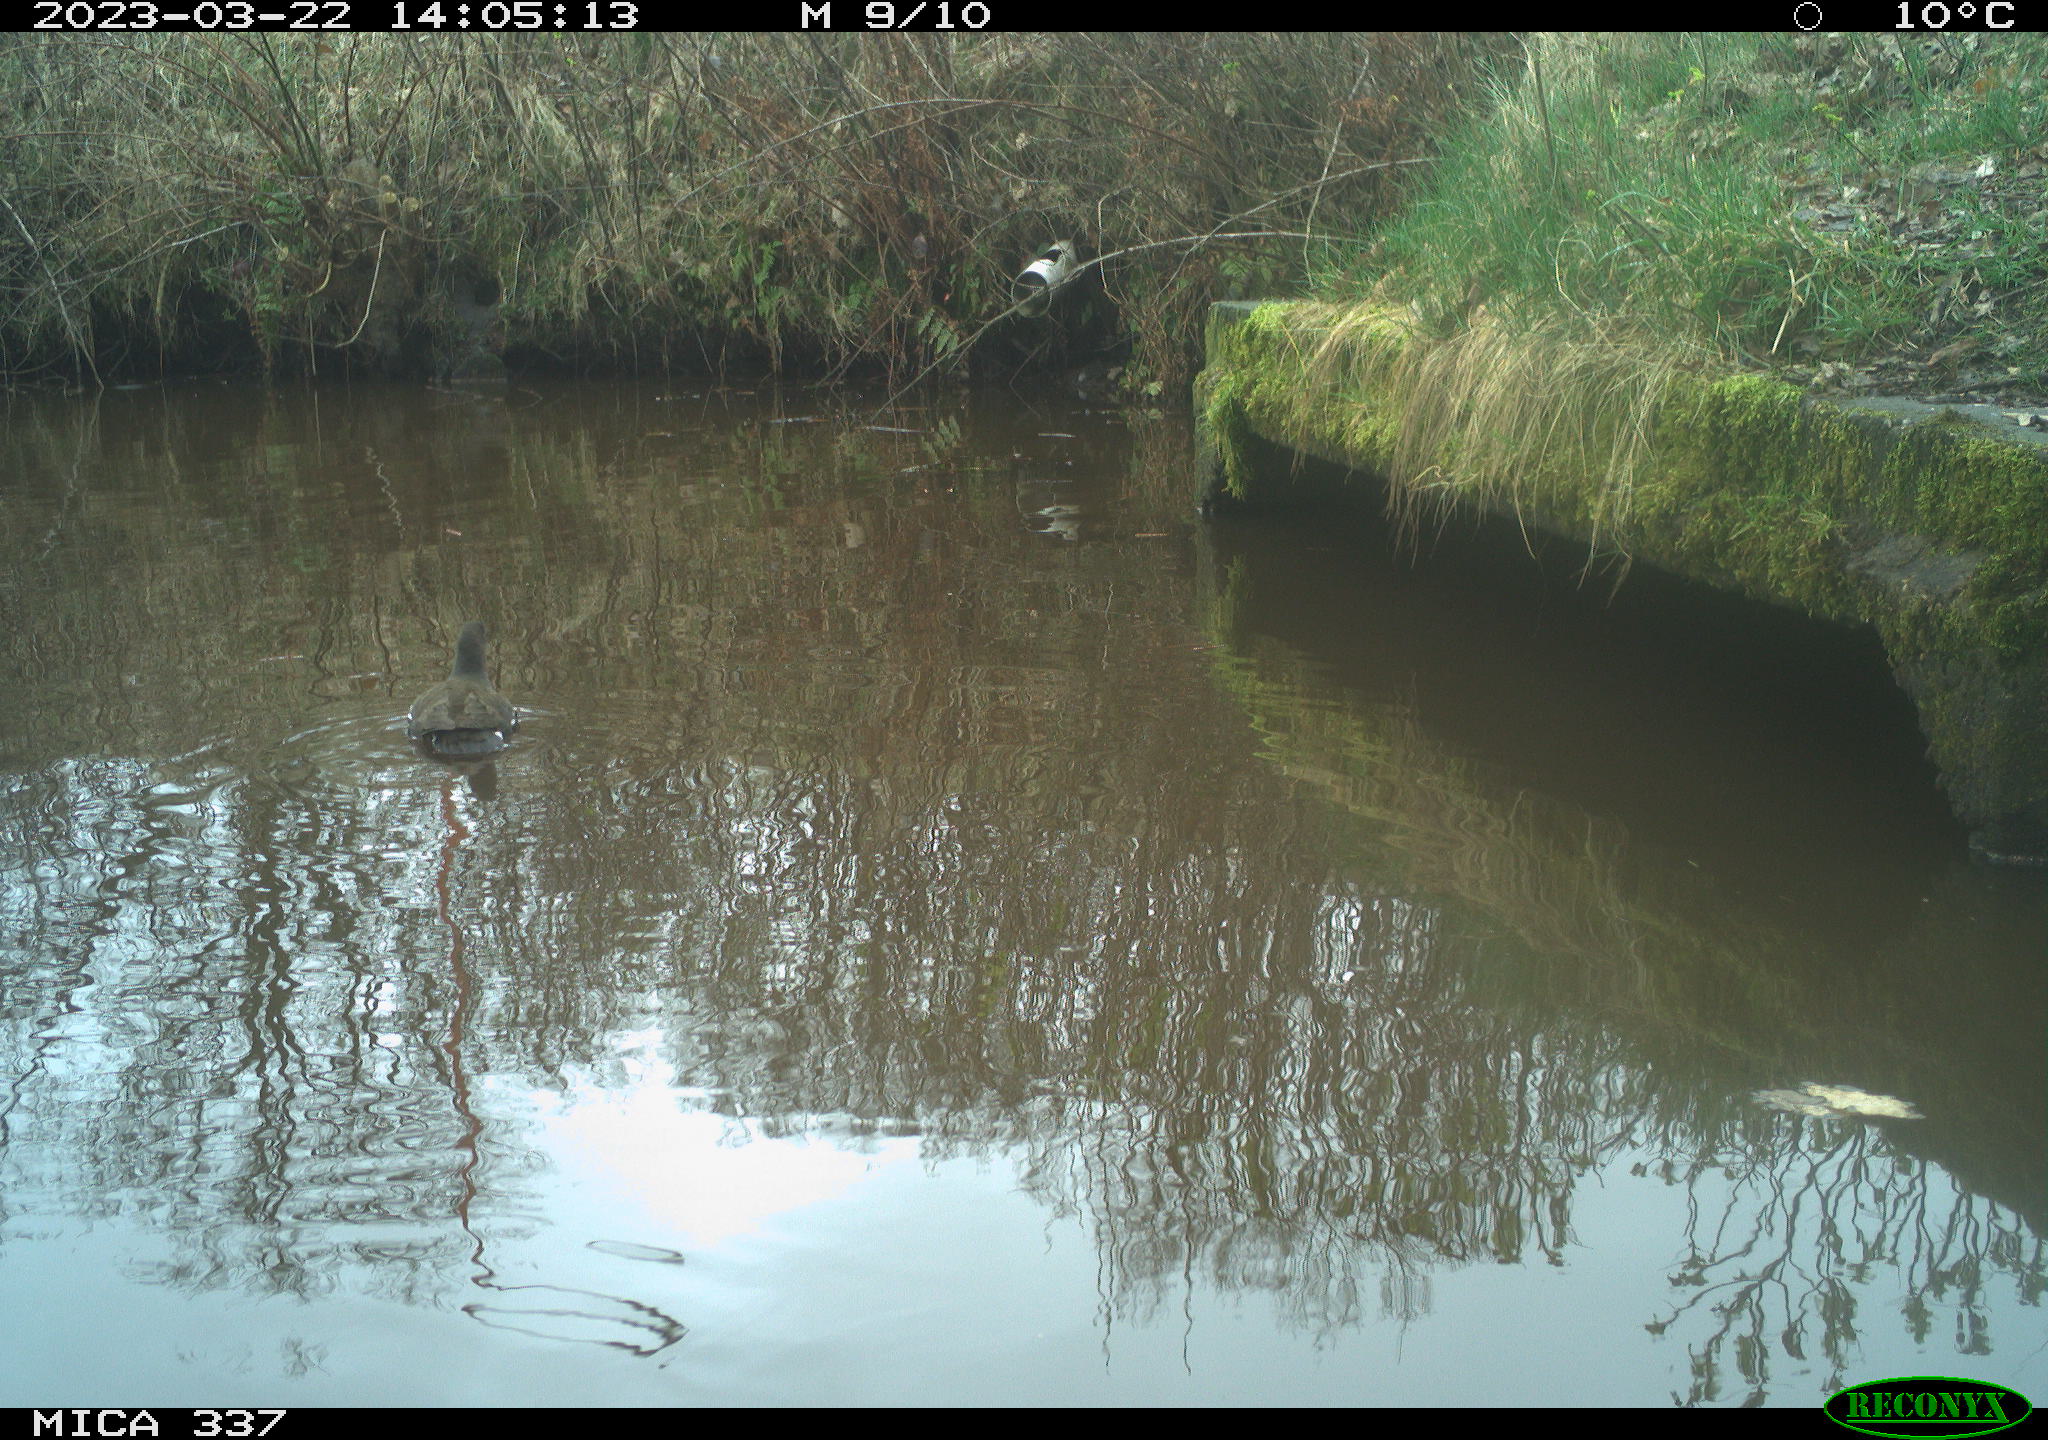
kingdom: Animalia
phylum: Chordata
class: Aves
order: Gruiformes
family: Rallidae
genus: Gallinula
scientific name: Gallinula chloropus
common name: Common moorhen
